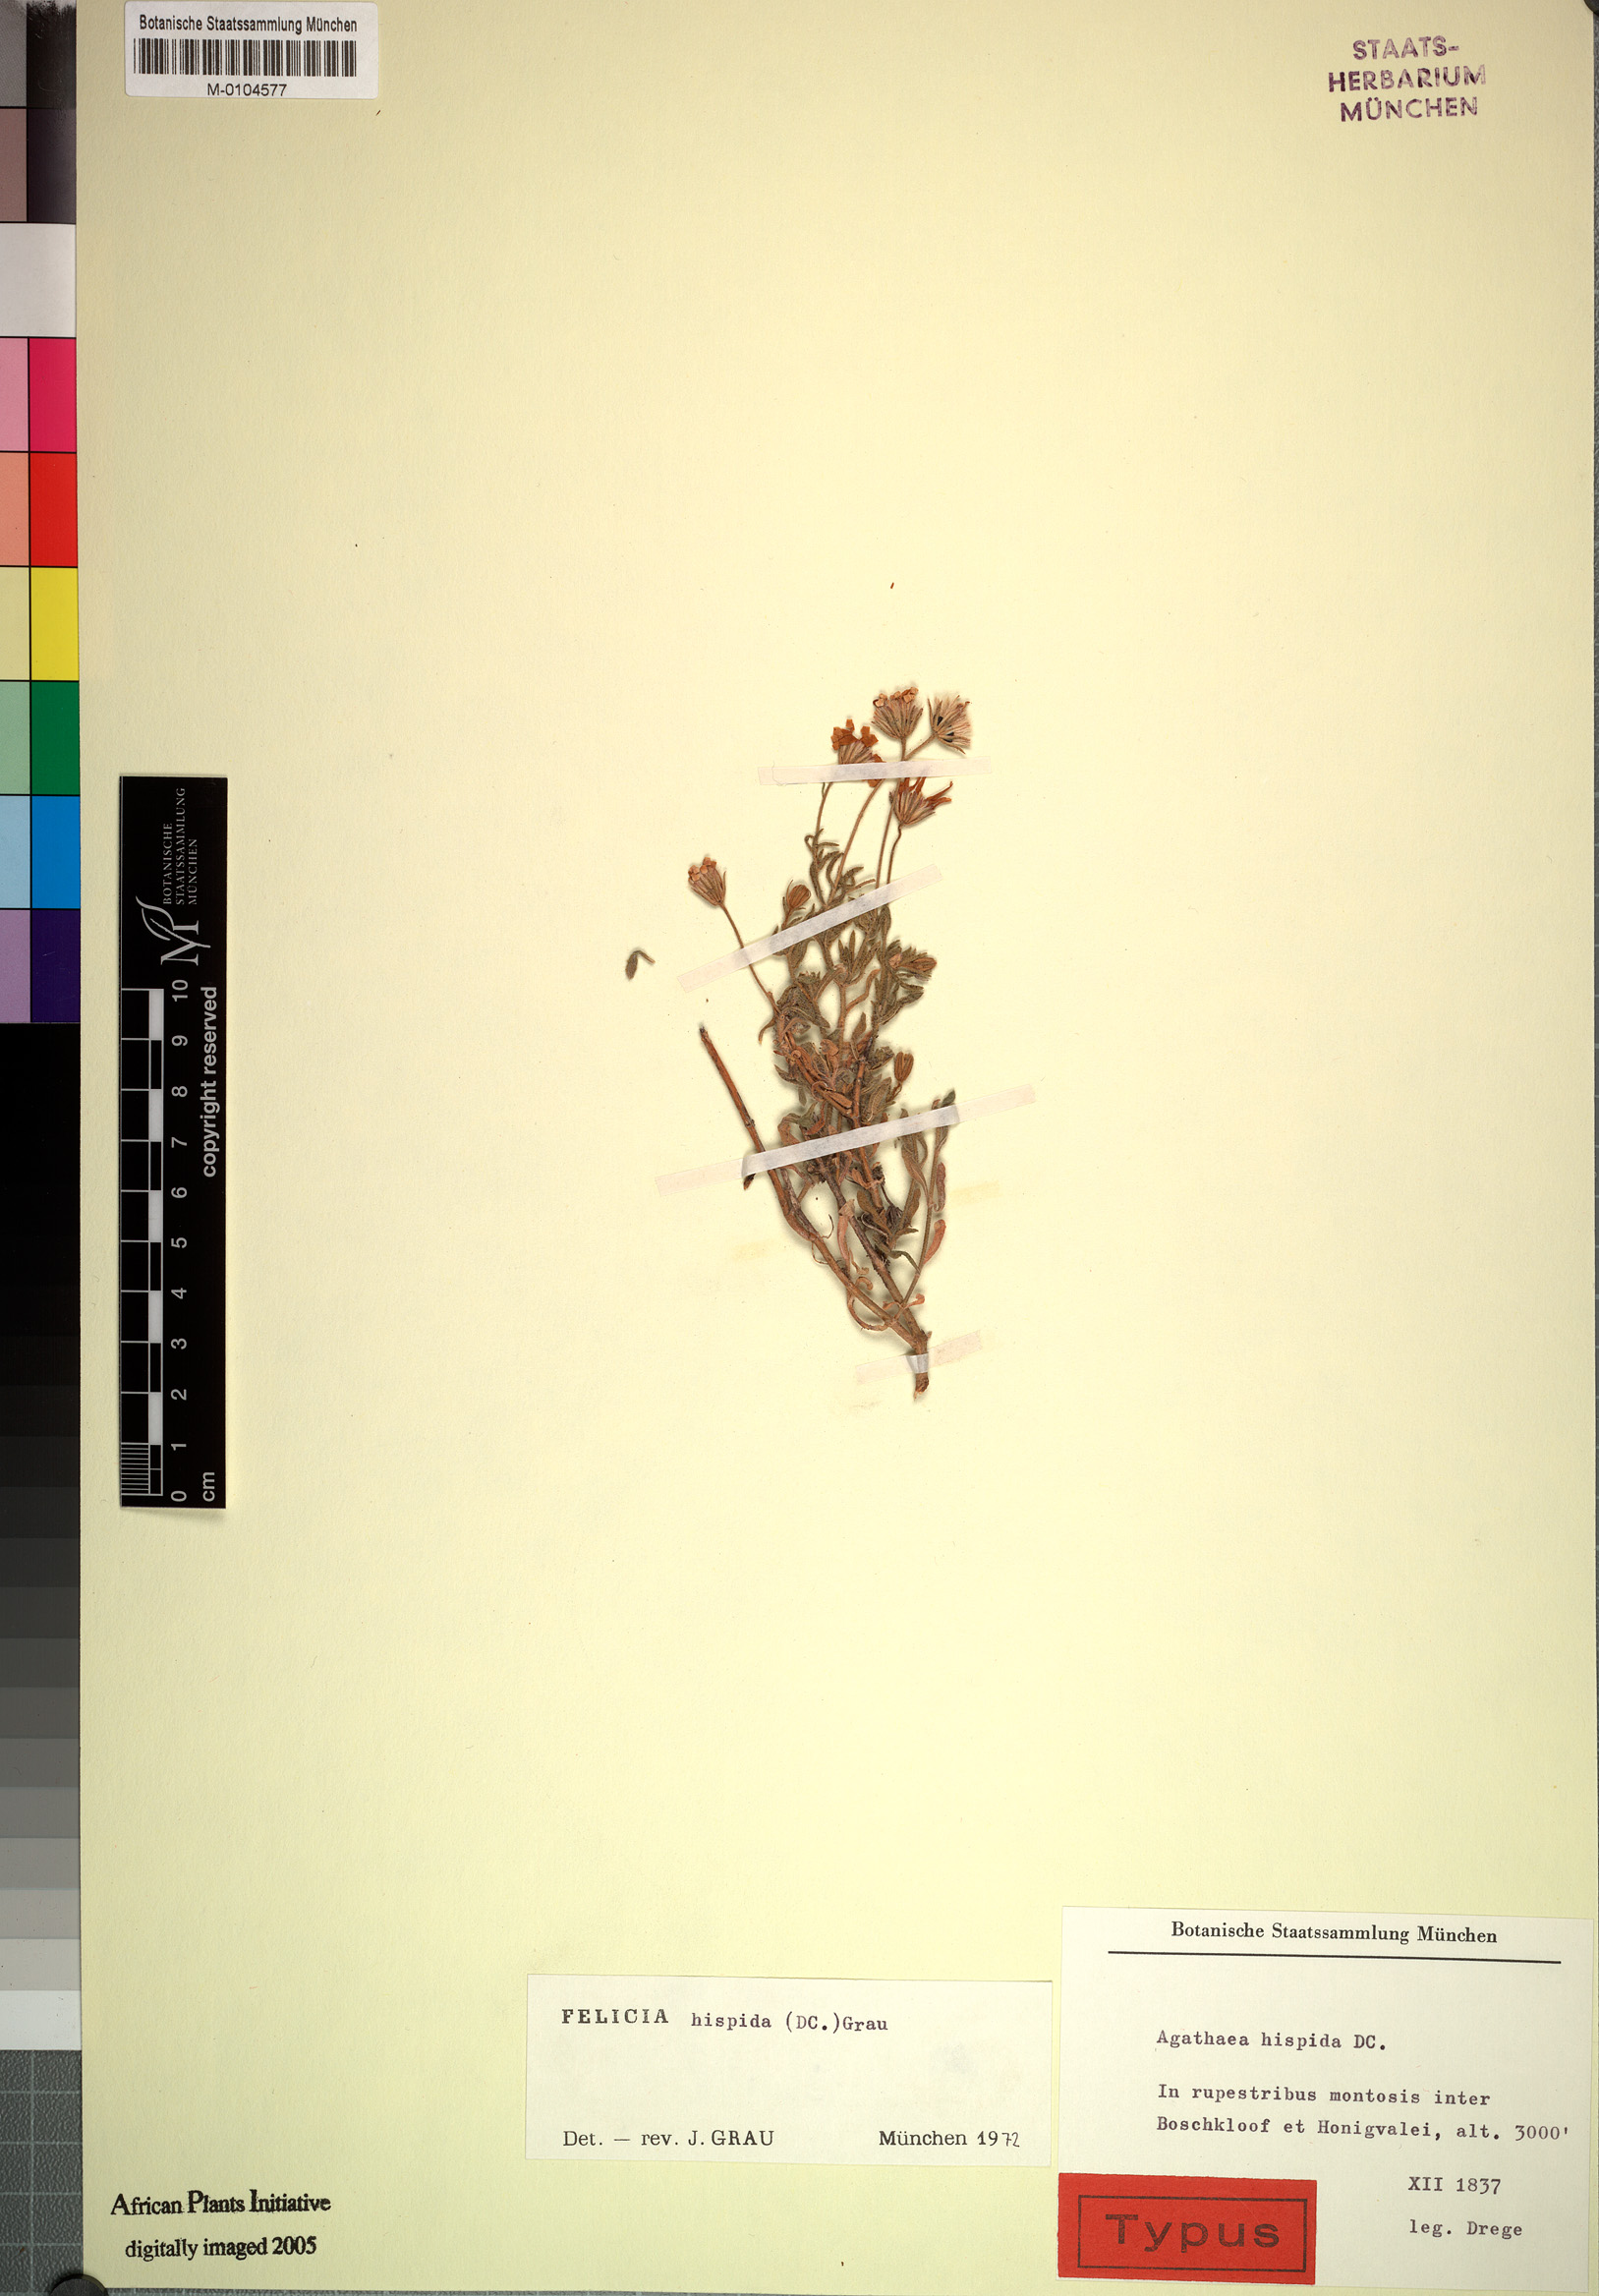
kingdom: Plantae
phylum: Tracheophyta
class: Magnoliopsida
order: Asterales
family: Asteraceae
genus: Felicia
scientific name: Felicia hispida
